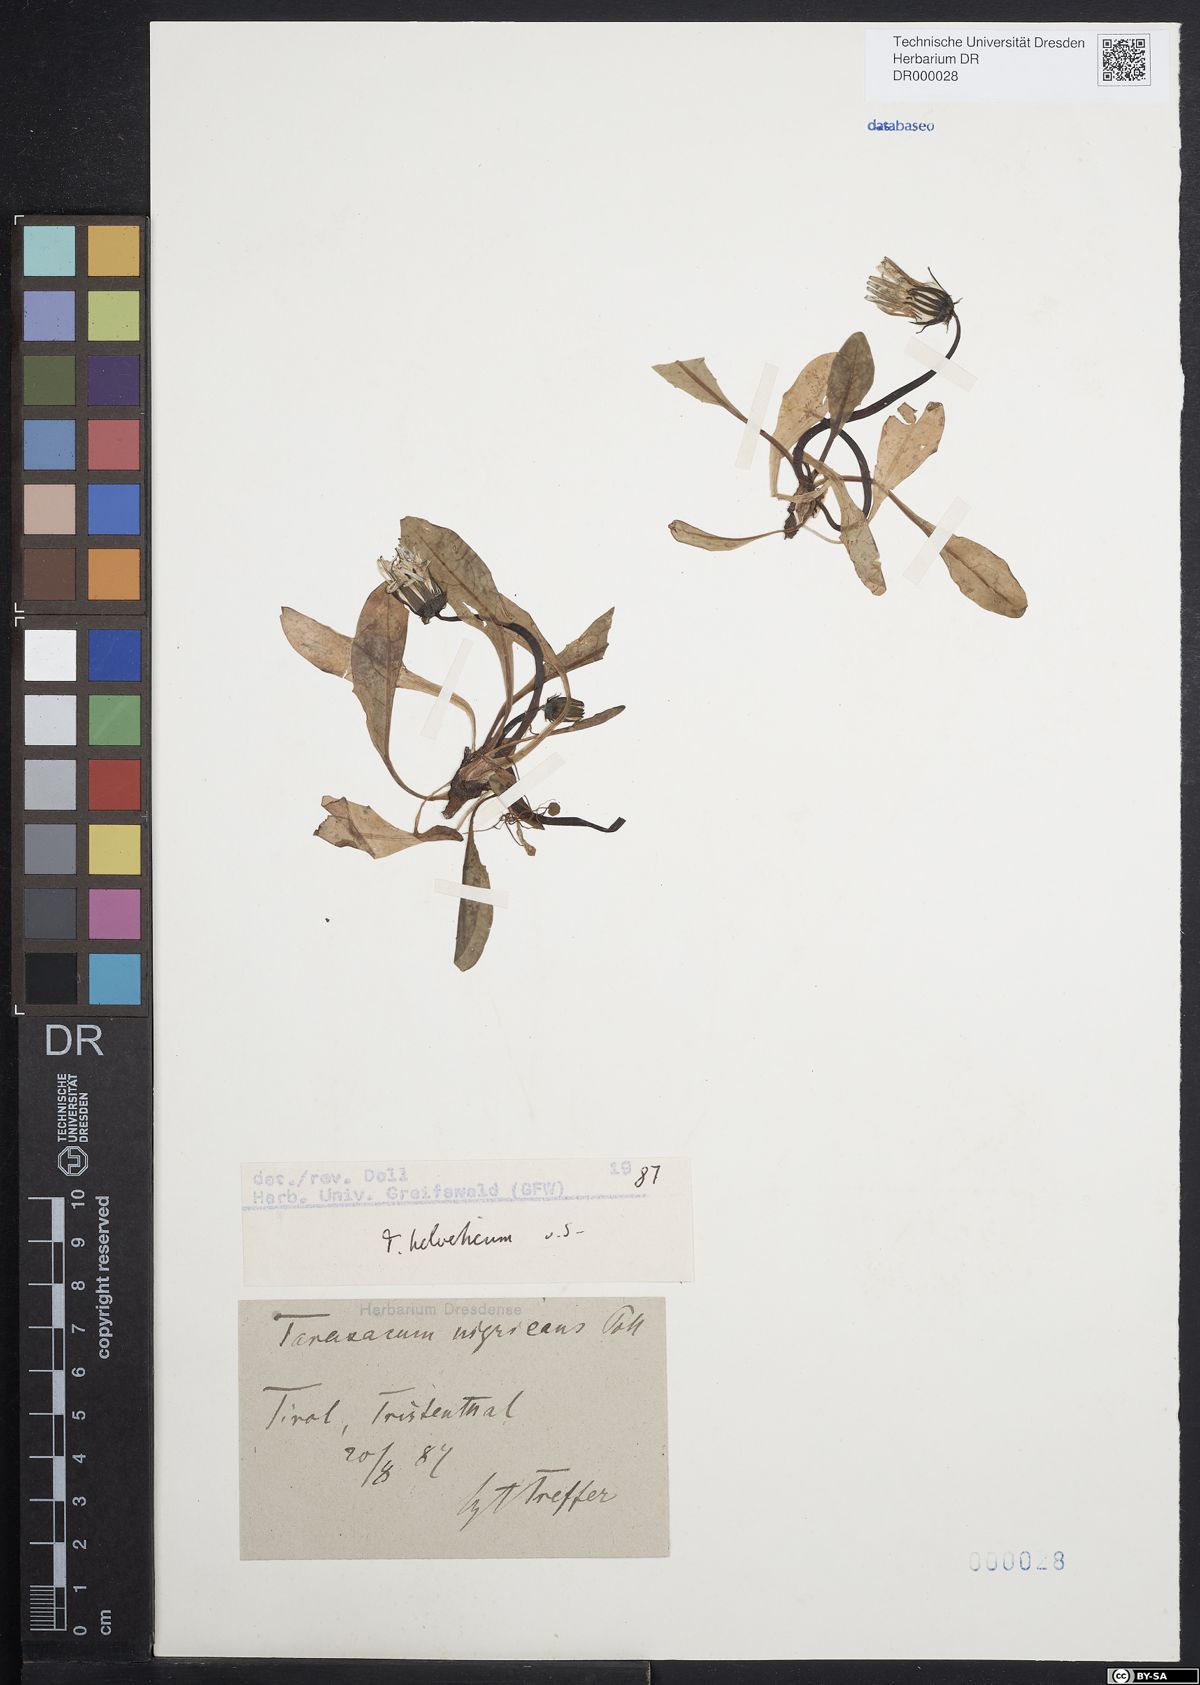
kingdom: Plantae
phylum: Tracheophyta
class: Magnoliopsida
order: Asterales
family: Asteraceae
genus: Taraxacum
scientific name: Taraxacum helveticum
